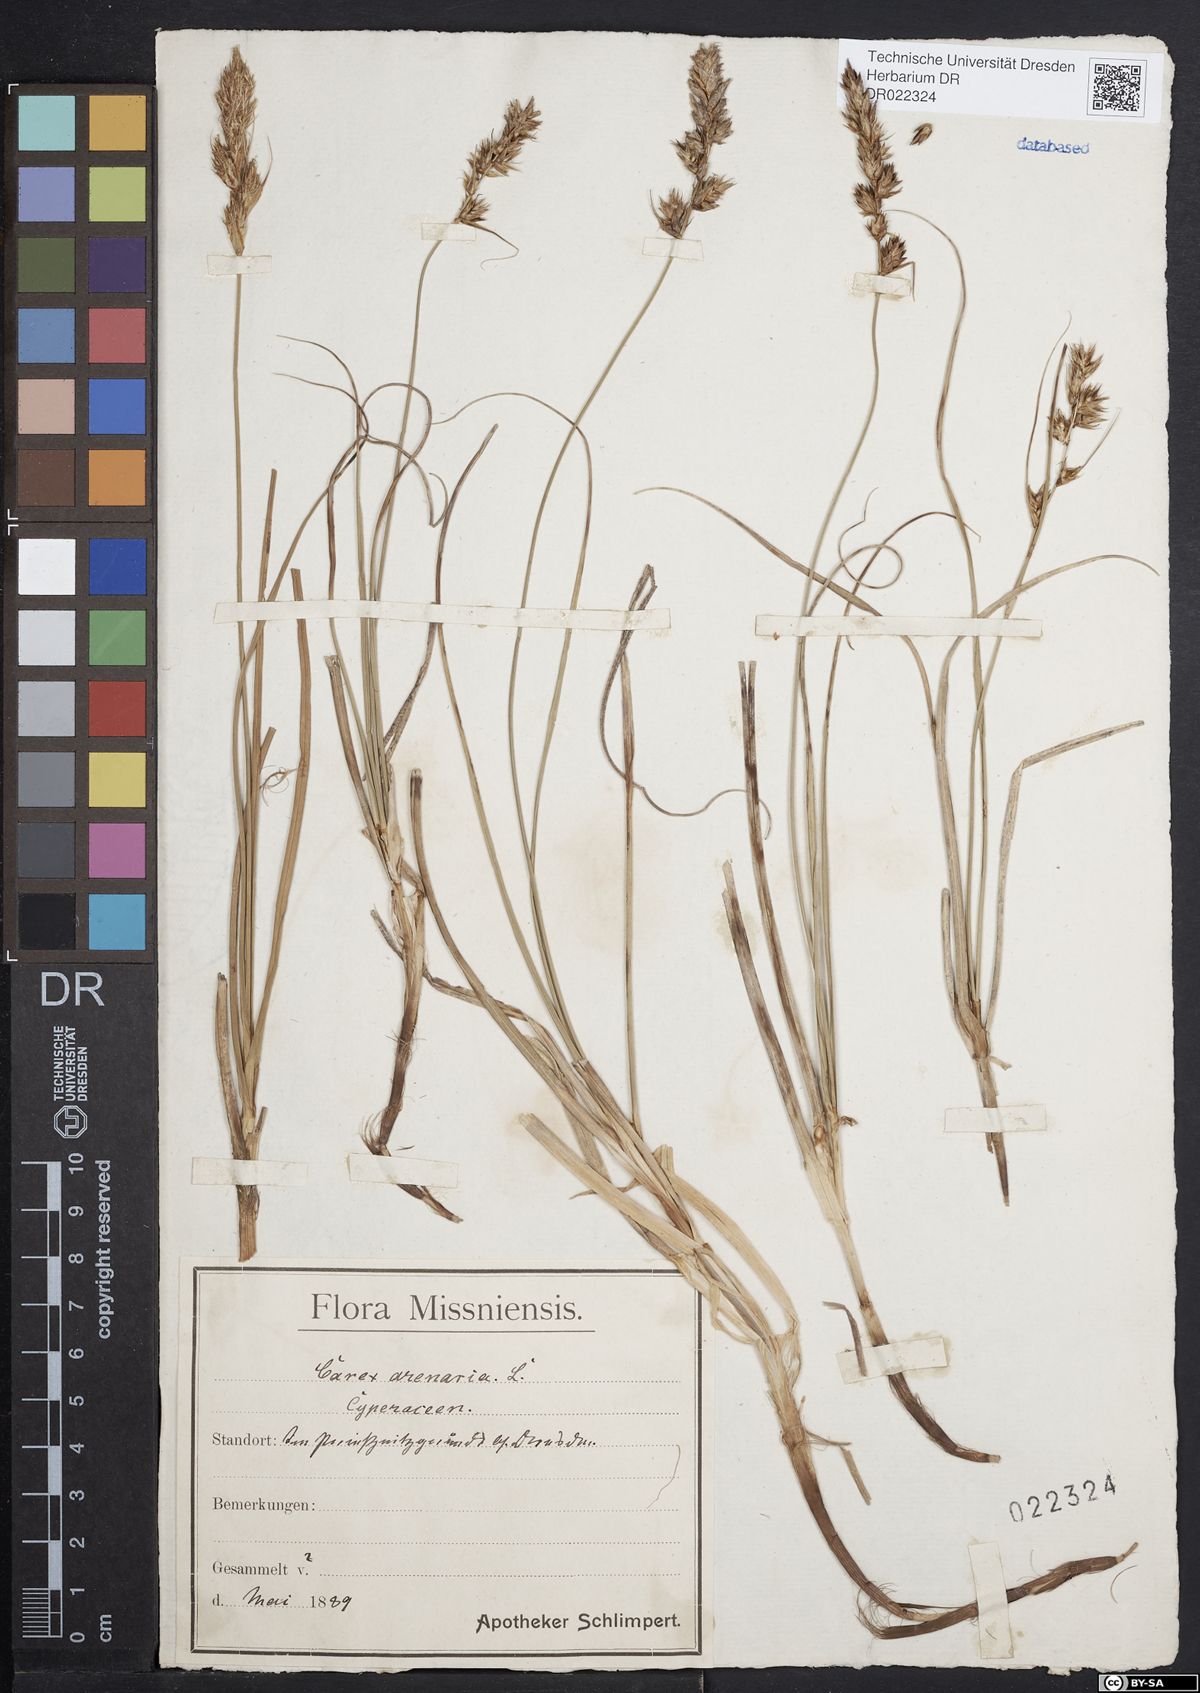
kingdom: Plantae
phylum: Tracheophyta
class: Liliopsida
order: Poales
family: Cyperaceae
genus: Carex
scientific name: Carex arenaria
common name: Sand sedge
